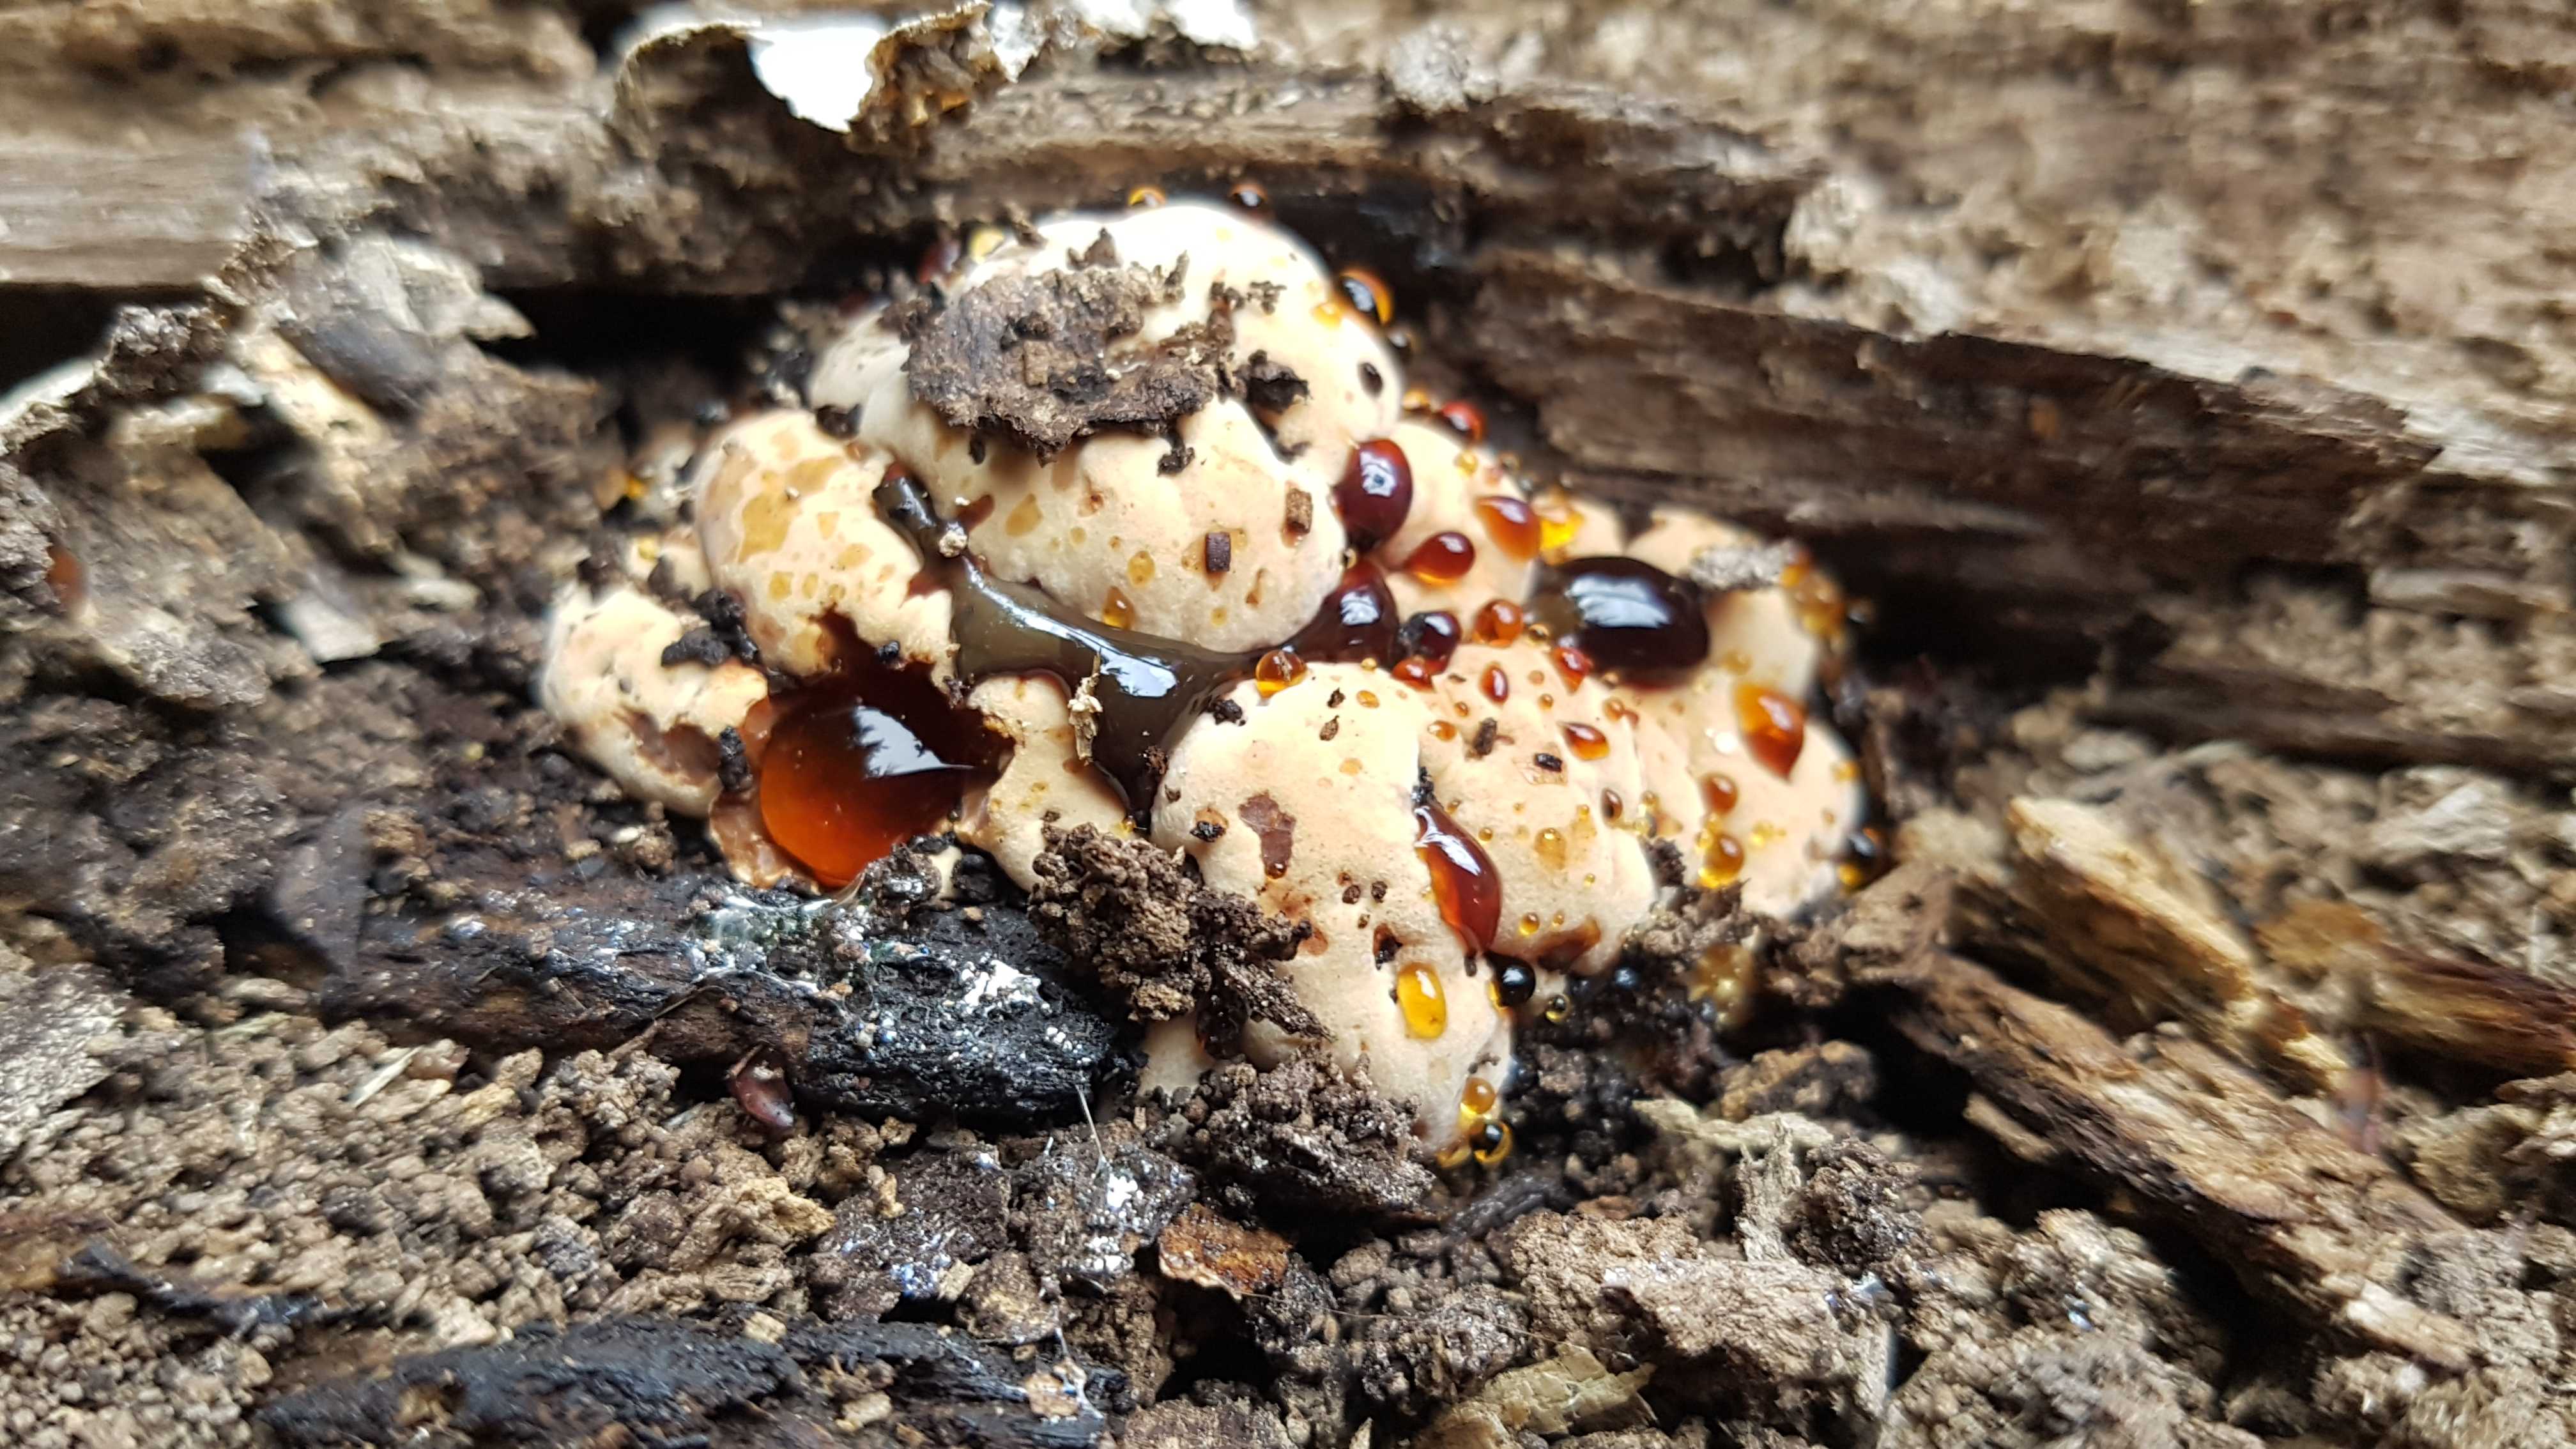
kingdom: Fungi
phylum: Basidiomycota
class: Agaricomycetes
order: Polyporales
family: Ischnodermataceae
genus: Ischnoderma
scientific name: Ischnoderma resinosum
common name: løv-tjæreporesvamp
